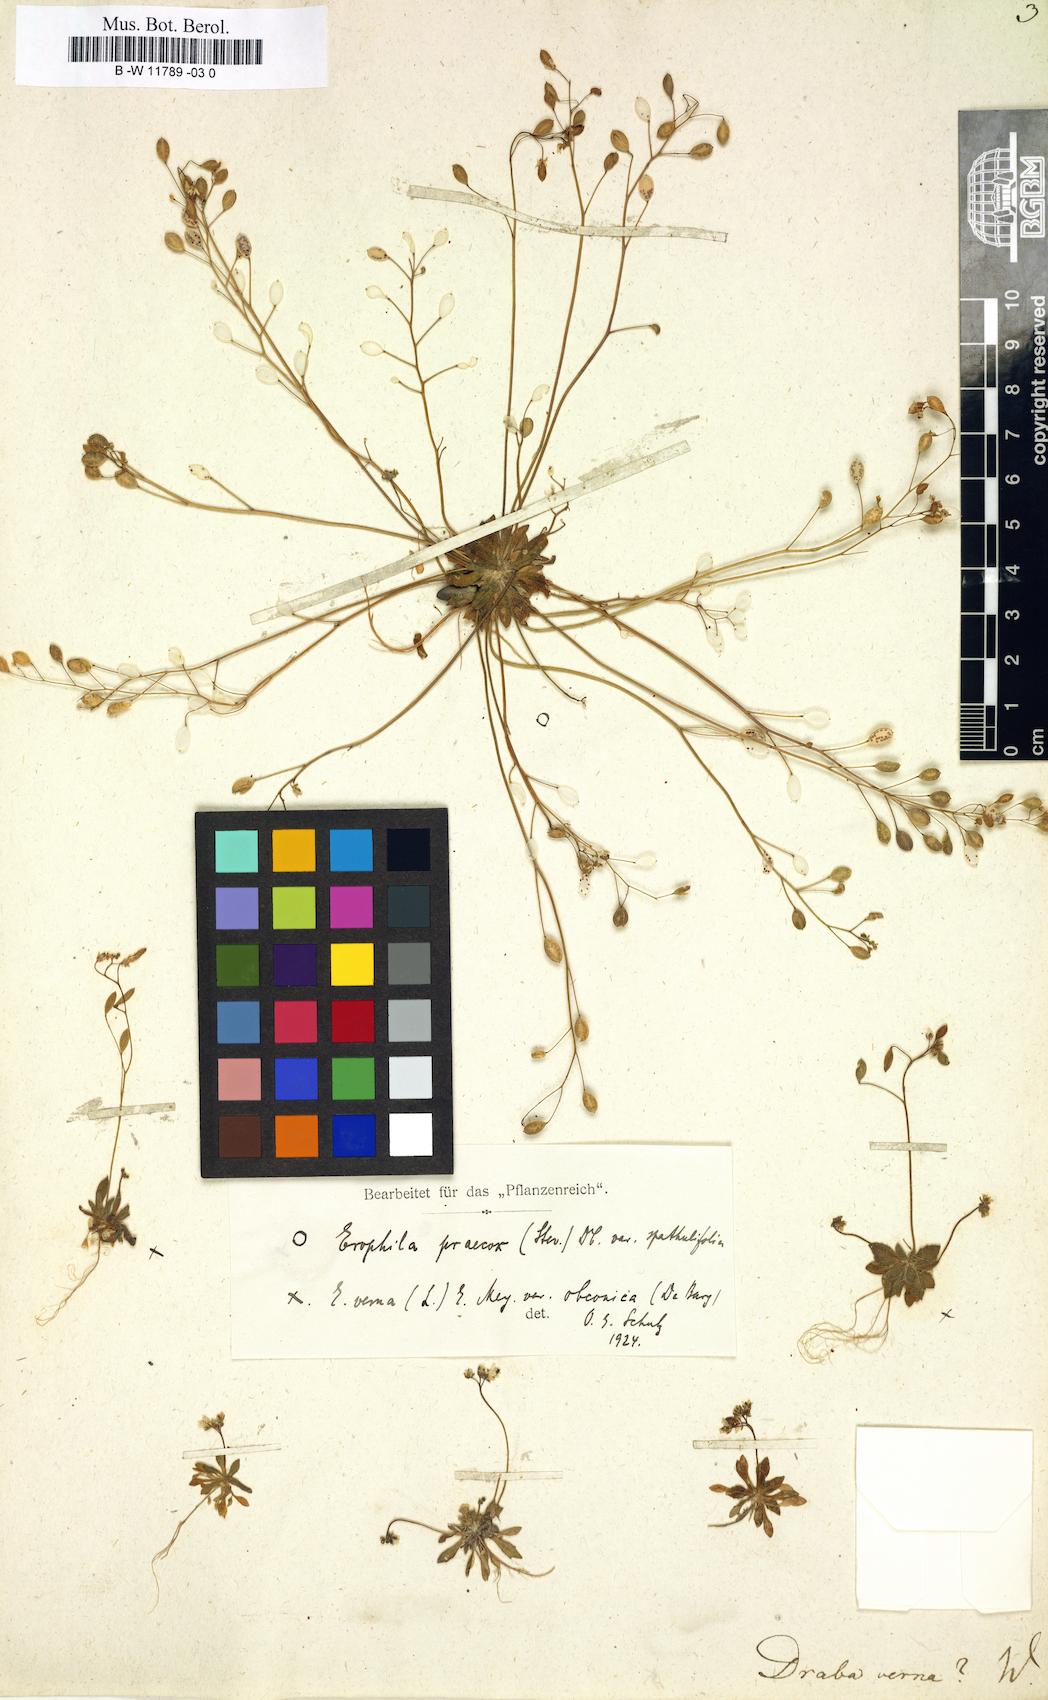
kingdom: Plantae
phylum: Tracheophyta
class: Magnoliopsida
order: Brassicales
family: Brassicaceae
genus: Draba
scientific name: Draba verna
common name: Spring draba
